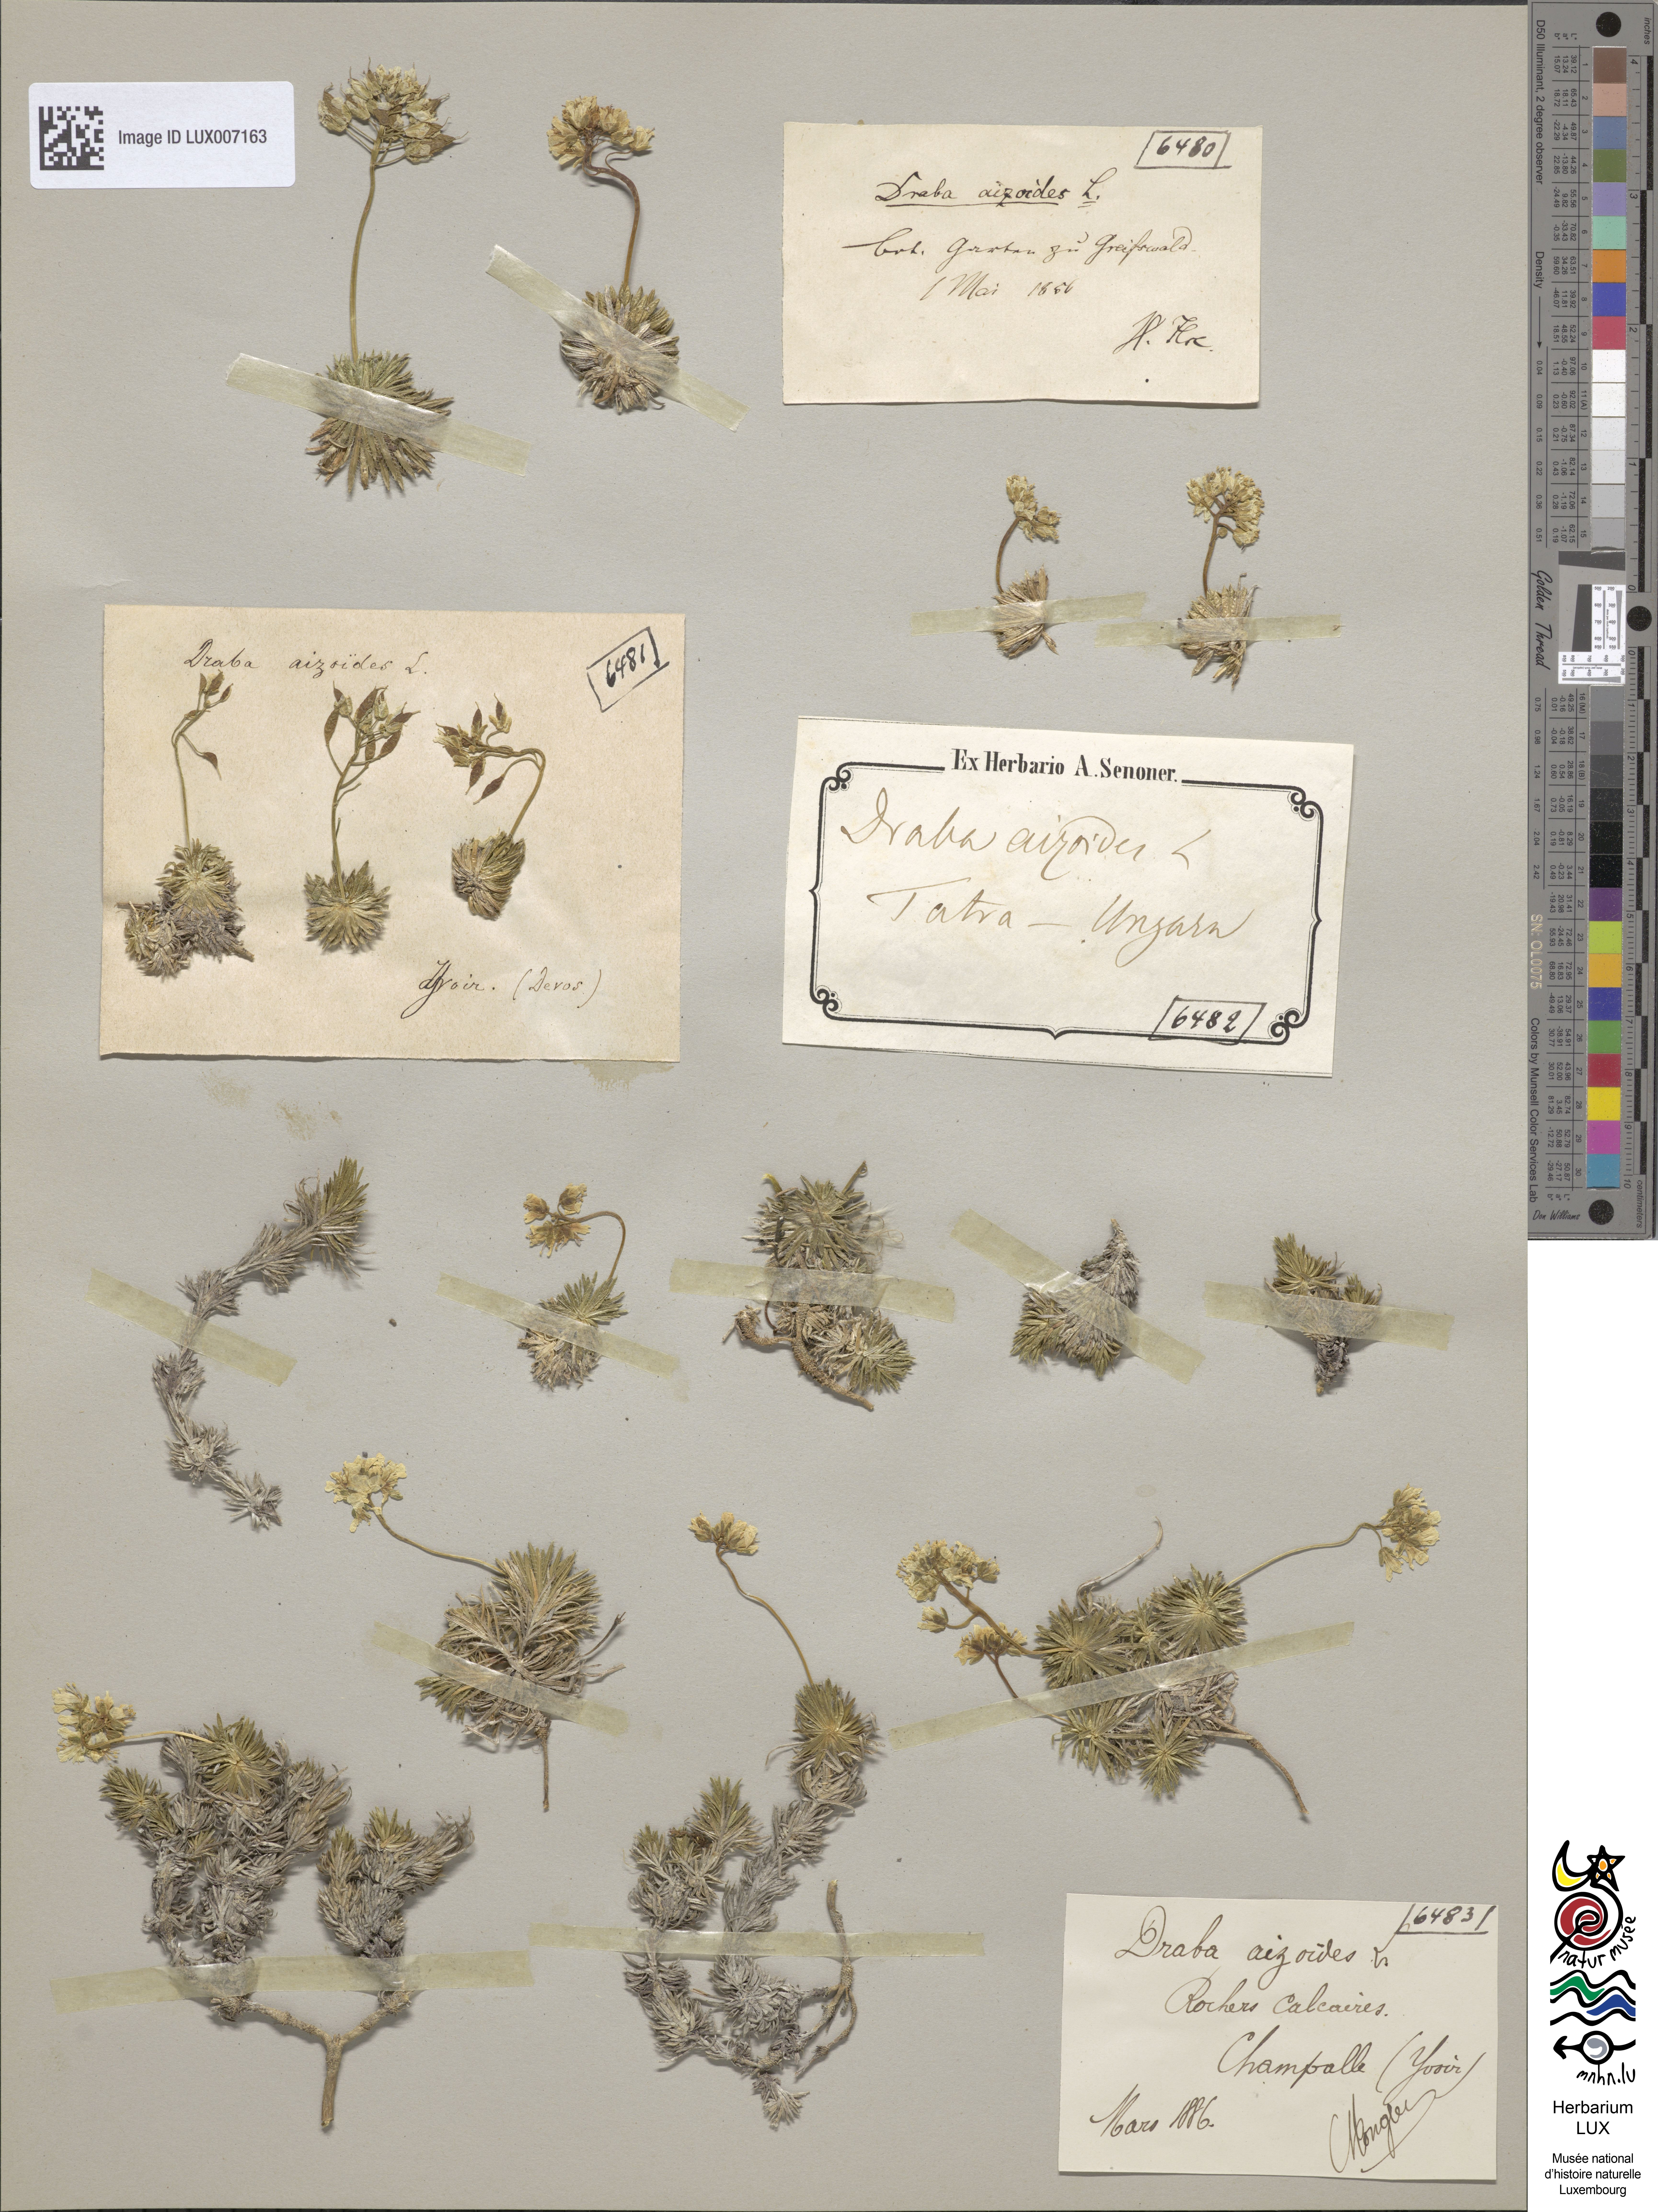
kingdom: Plantae
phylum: Tracheophyta
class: Magnoliopsida
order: Brassicales
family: Brassicaceae
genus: Draba
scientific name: Draba aizoides
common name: Yellow whitlowgrass
